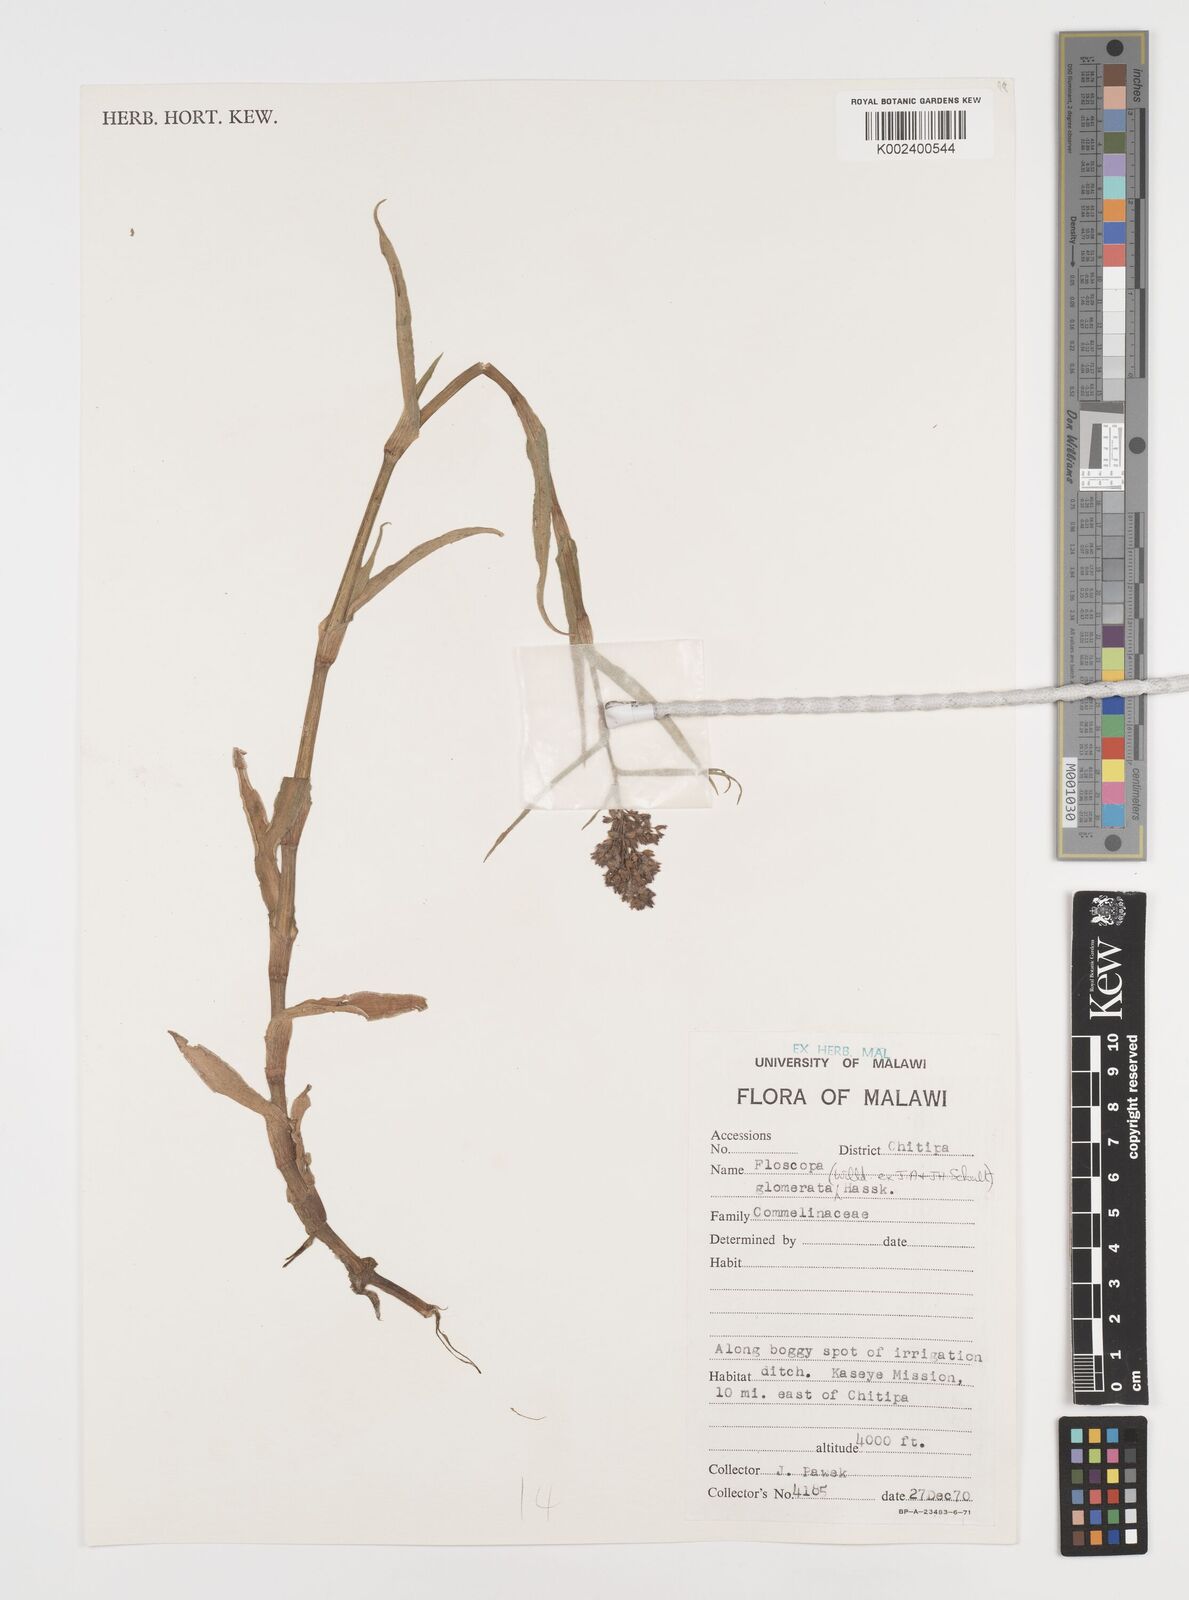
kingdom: Plantae
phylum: Tracheophyta
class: Liliopsida
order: Commelinales
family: Commelinaceae
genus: Floscopa
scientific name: Floscopa glomerata
